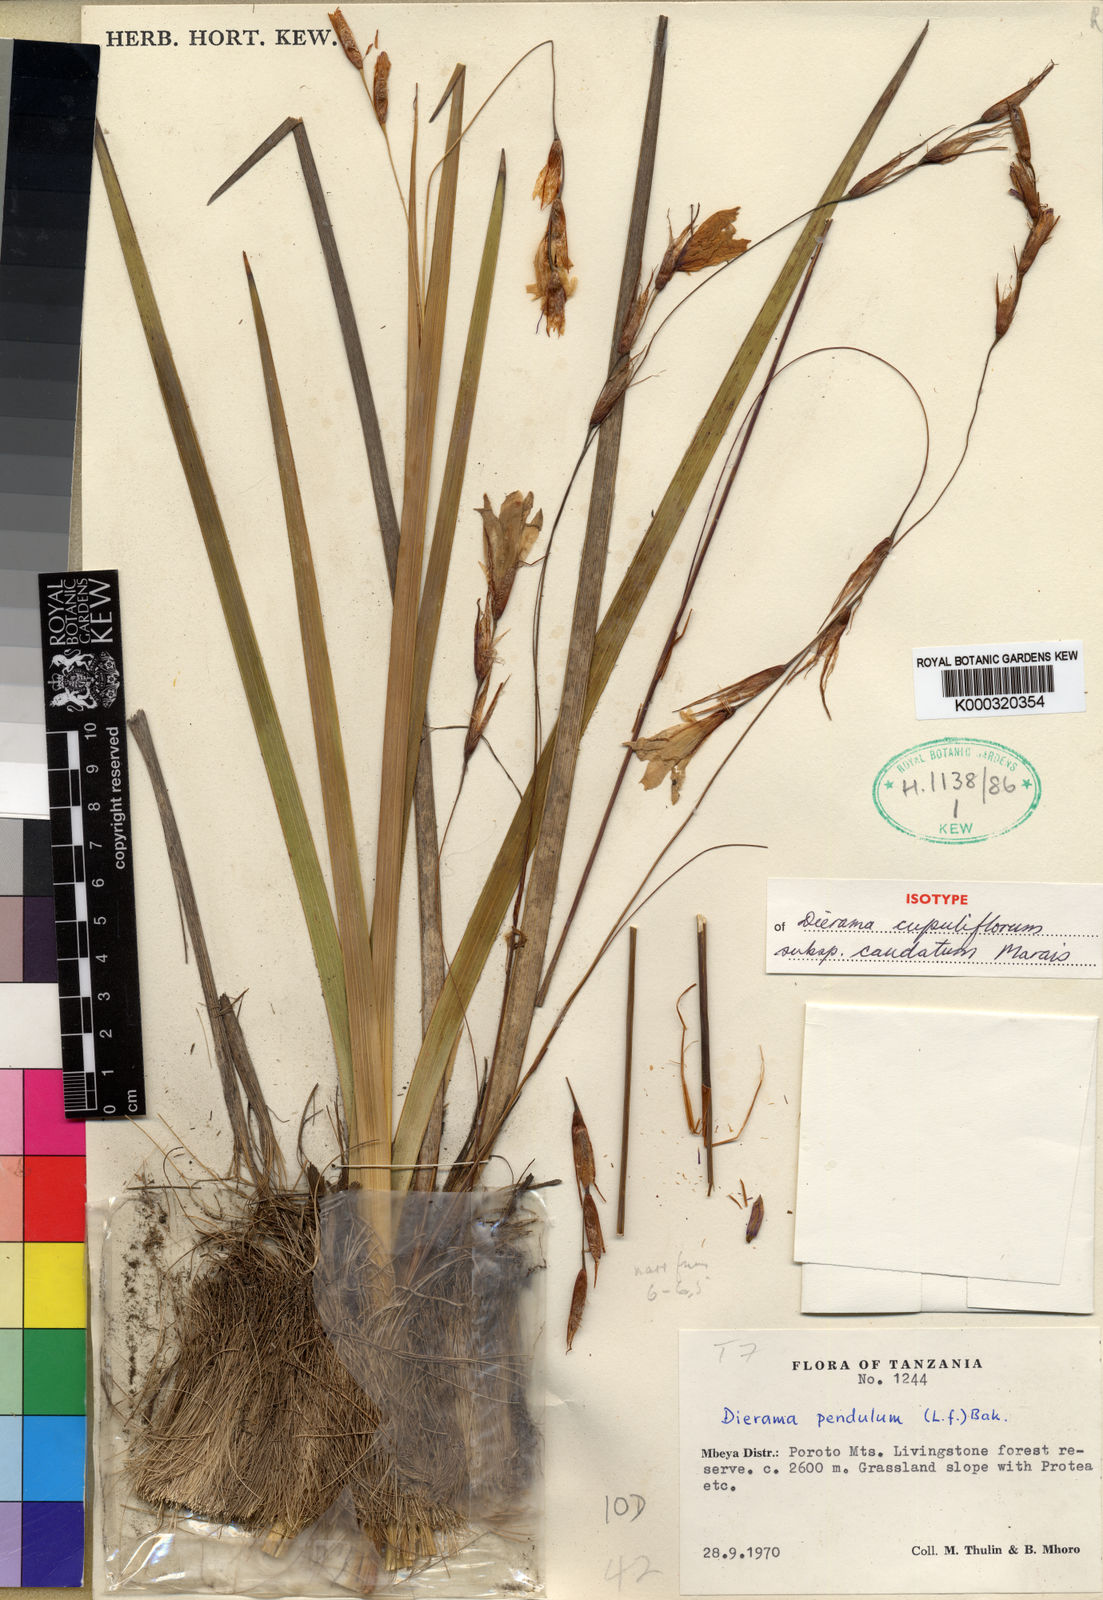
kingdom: Plantae
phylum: Tracheophyta
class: Liliopsida
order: Asparagales
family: Iridaceae
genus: Dierama
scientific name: Dierama cupuliflorum
